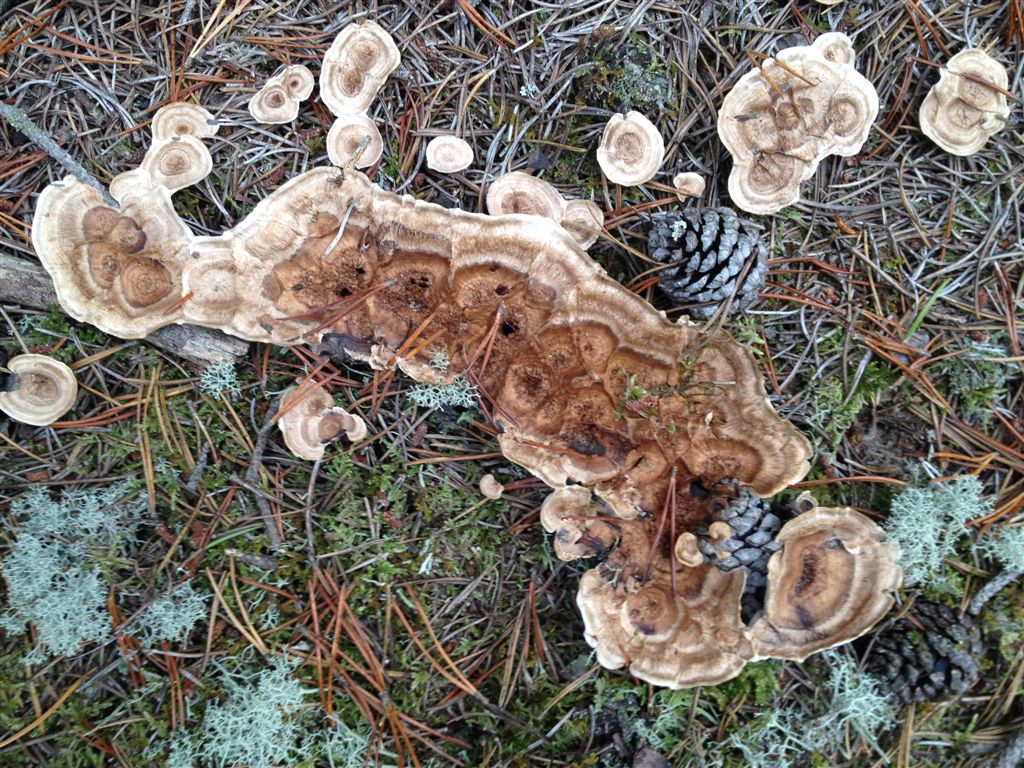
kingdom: Fungi
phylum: Basidiomycota
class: Agaricomycetes
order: Thelephorales
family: Thelephoraceae
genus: Phellodon
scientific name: Phellodon tomentosus
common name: tragtformet duftpigsvamp
